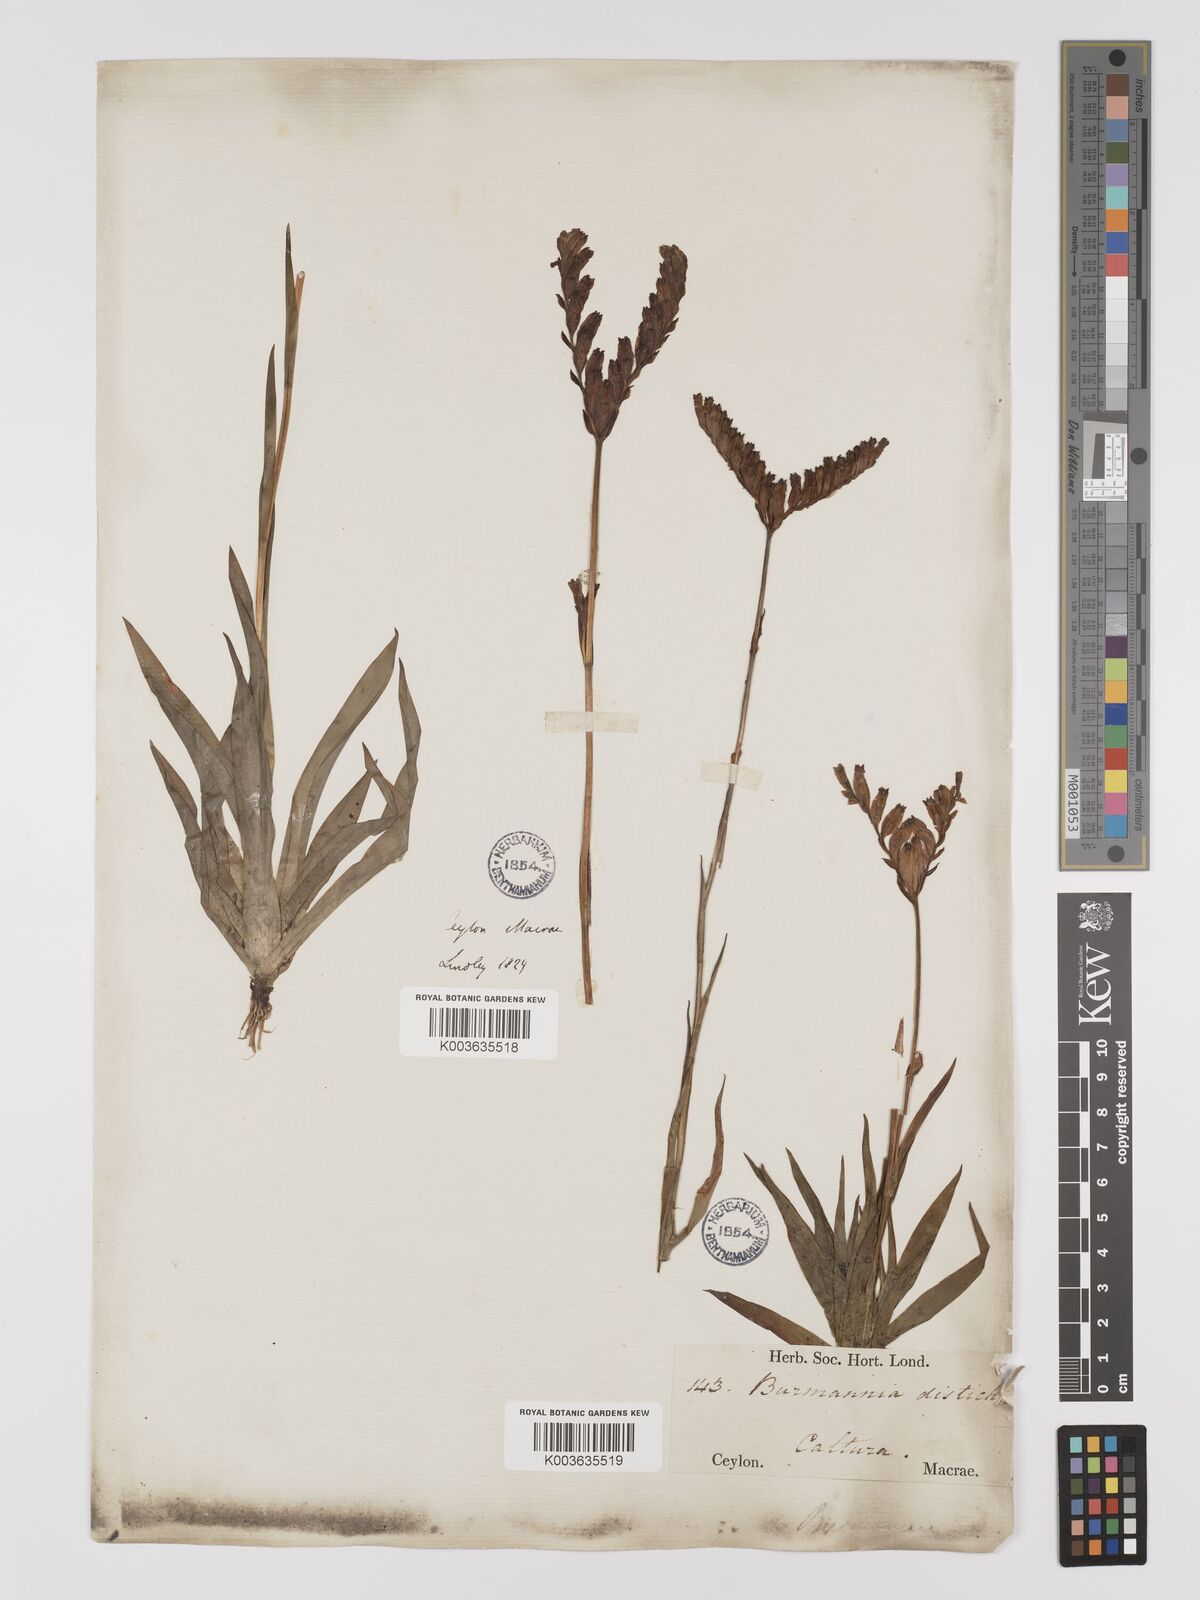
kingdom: Plantae
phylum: Tracheophyta
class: Liliopsida
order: Dioscoreales
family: Burmanniaceae
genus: Burmannia
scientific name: Burmannia disticha
